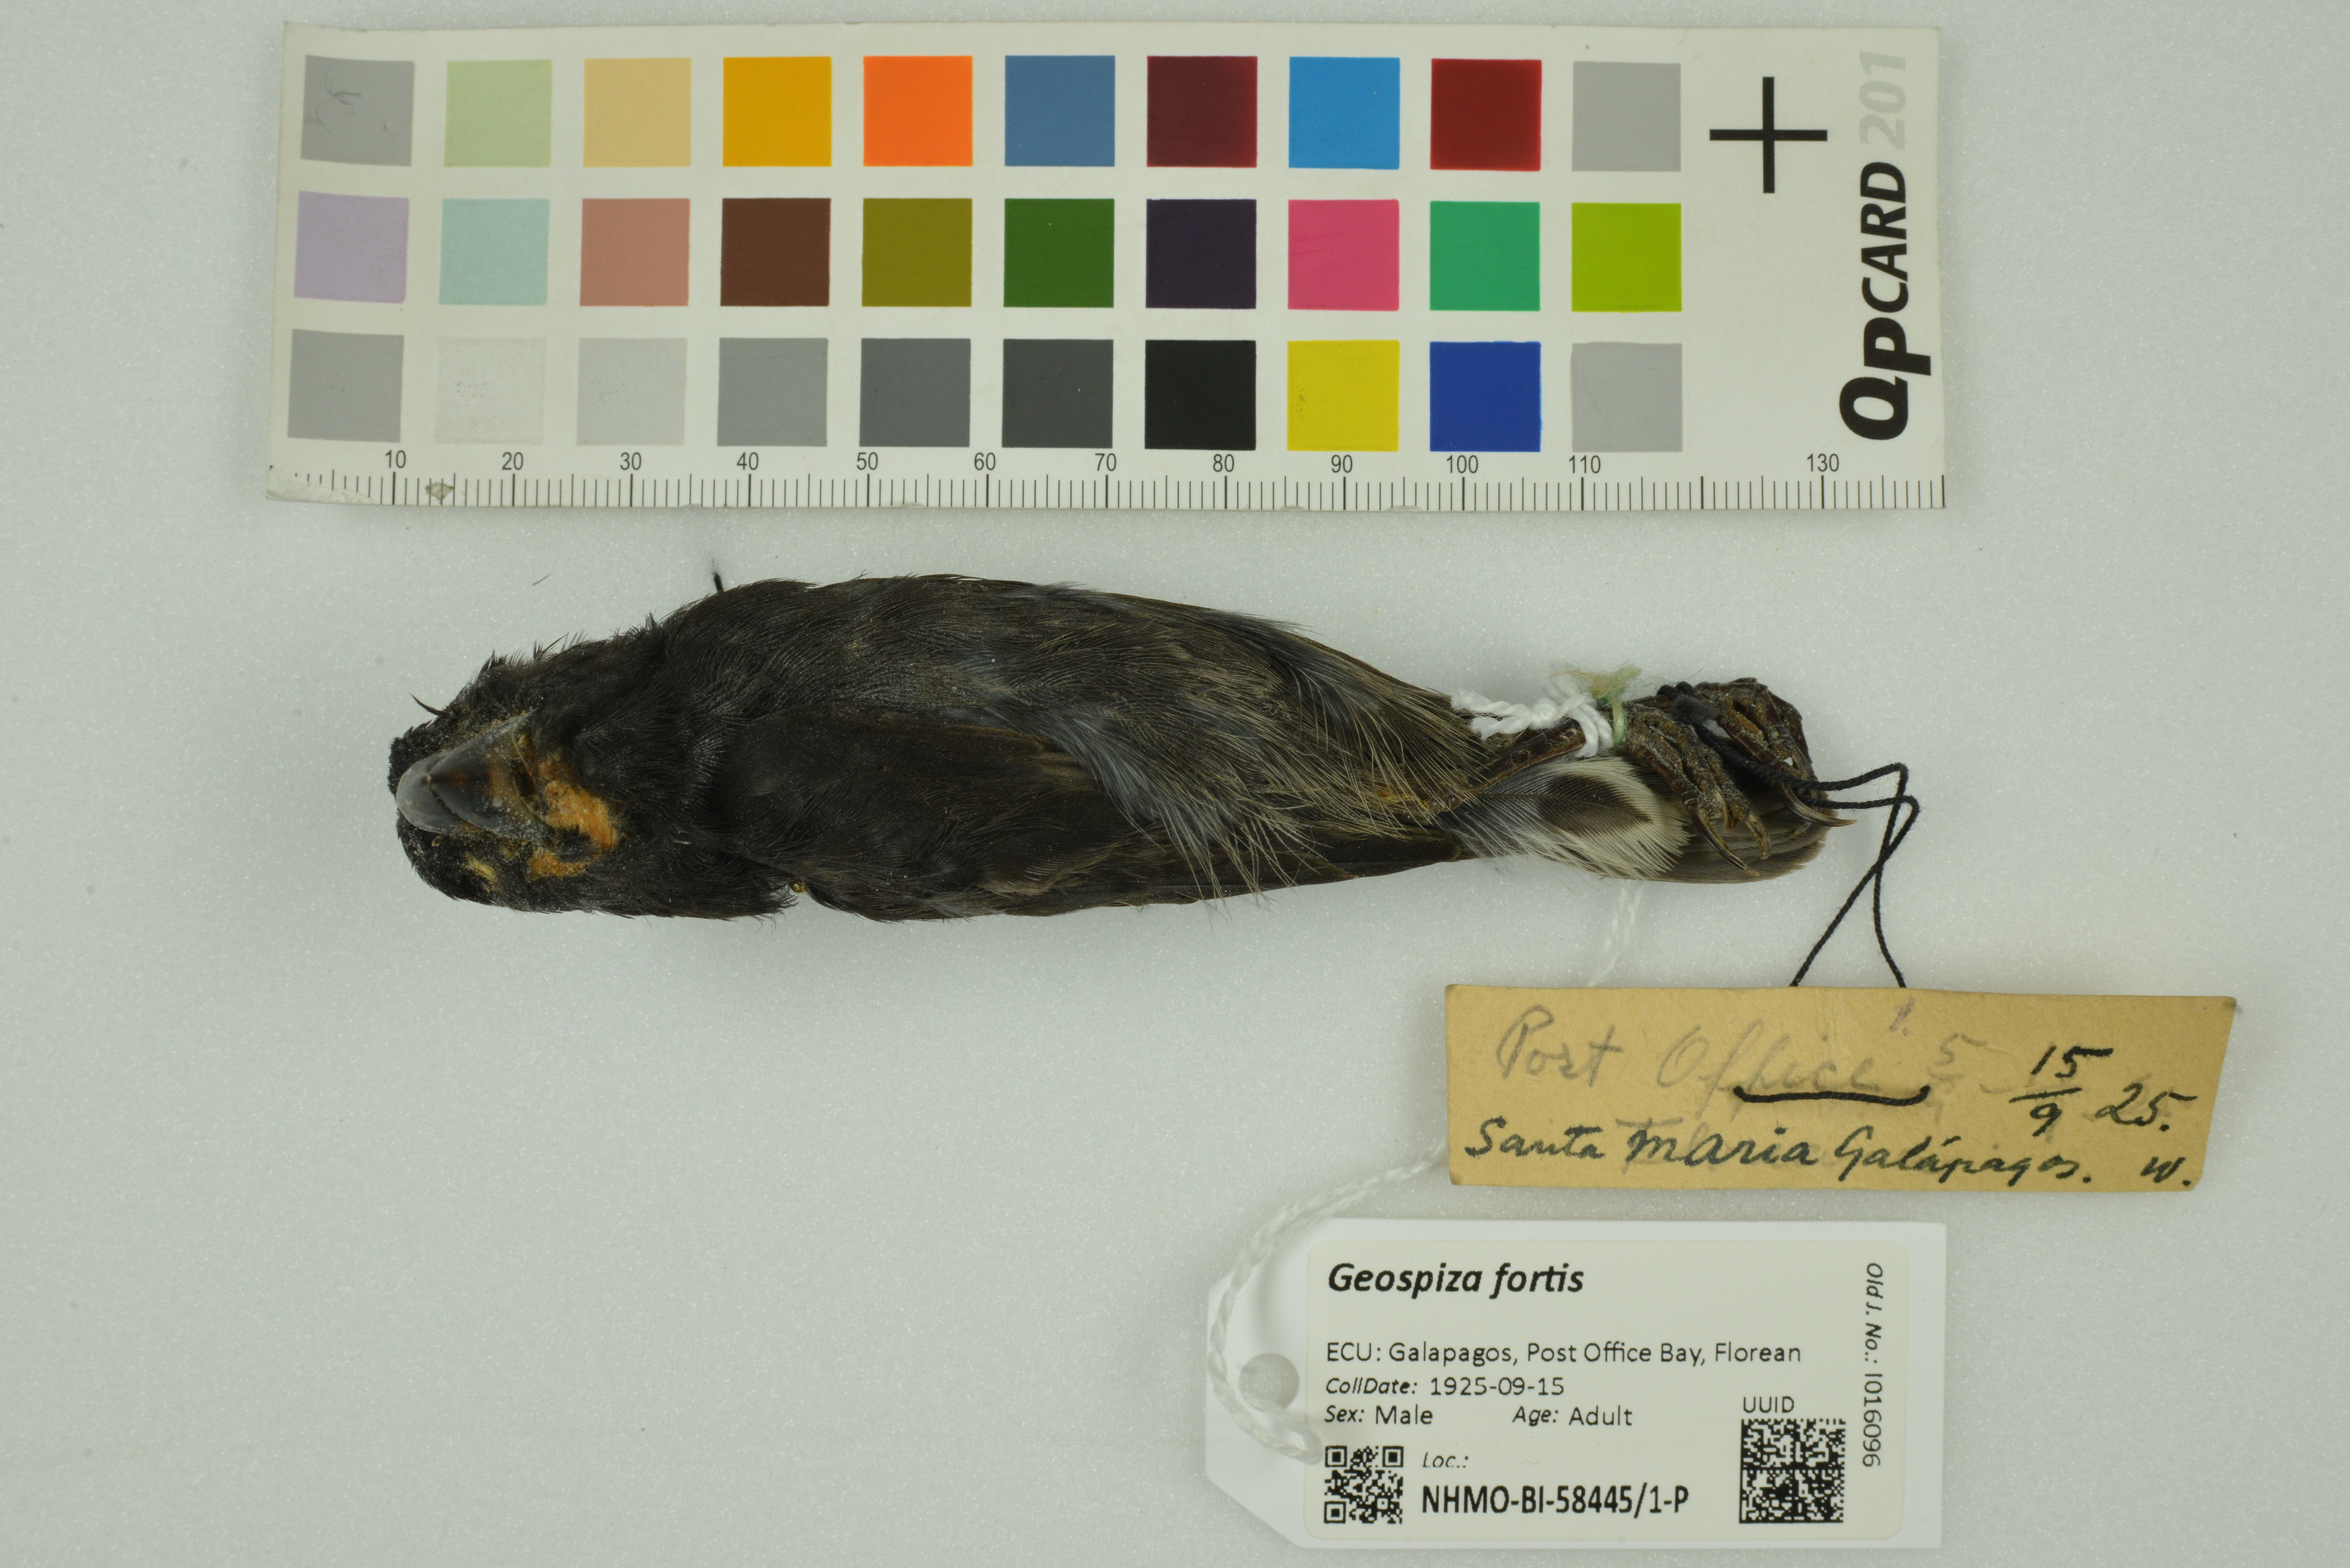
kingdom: Animalia
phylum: Chordata
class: Aves
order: Passeriformes
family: Thraupidae
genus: Geospiza
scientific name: Geospiza fortis
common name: Medium ground finch
